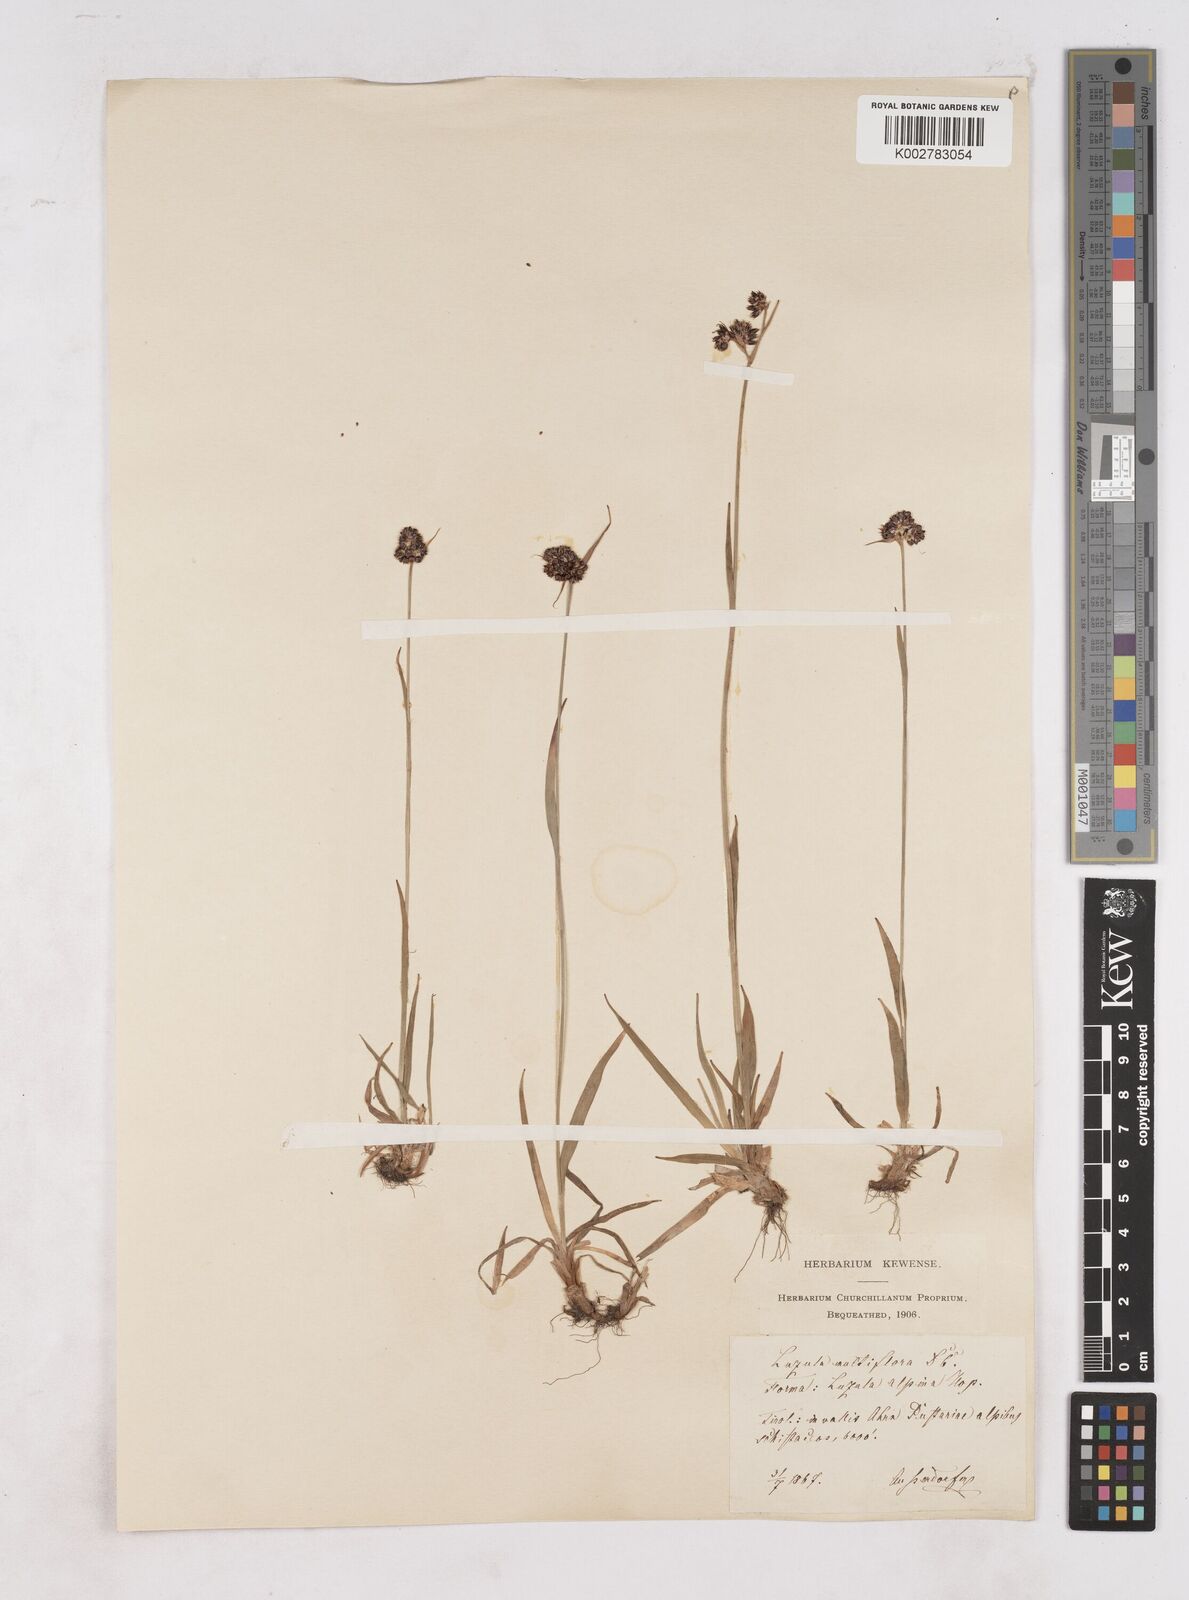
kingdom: Plantae
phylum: Tracheophyta
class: Liliopsida
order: Poales
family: Juncaceae
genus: Luzula
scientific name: Luzula campestris
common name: Field wood-rush
